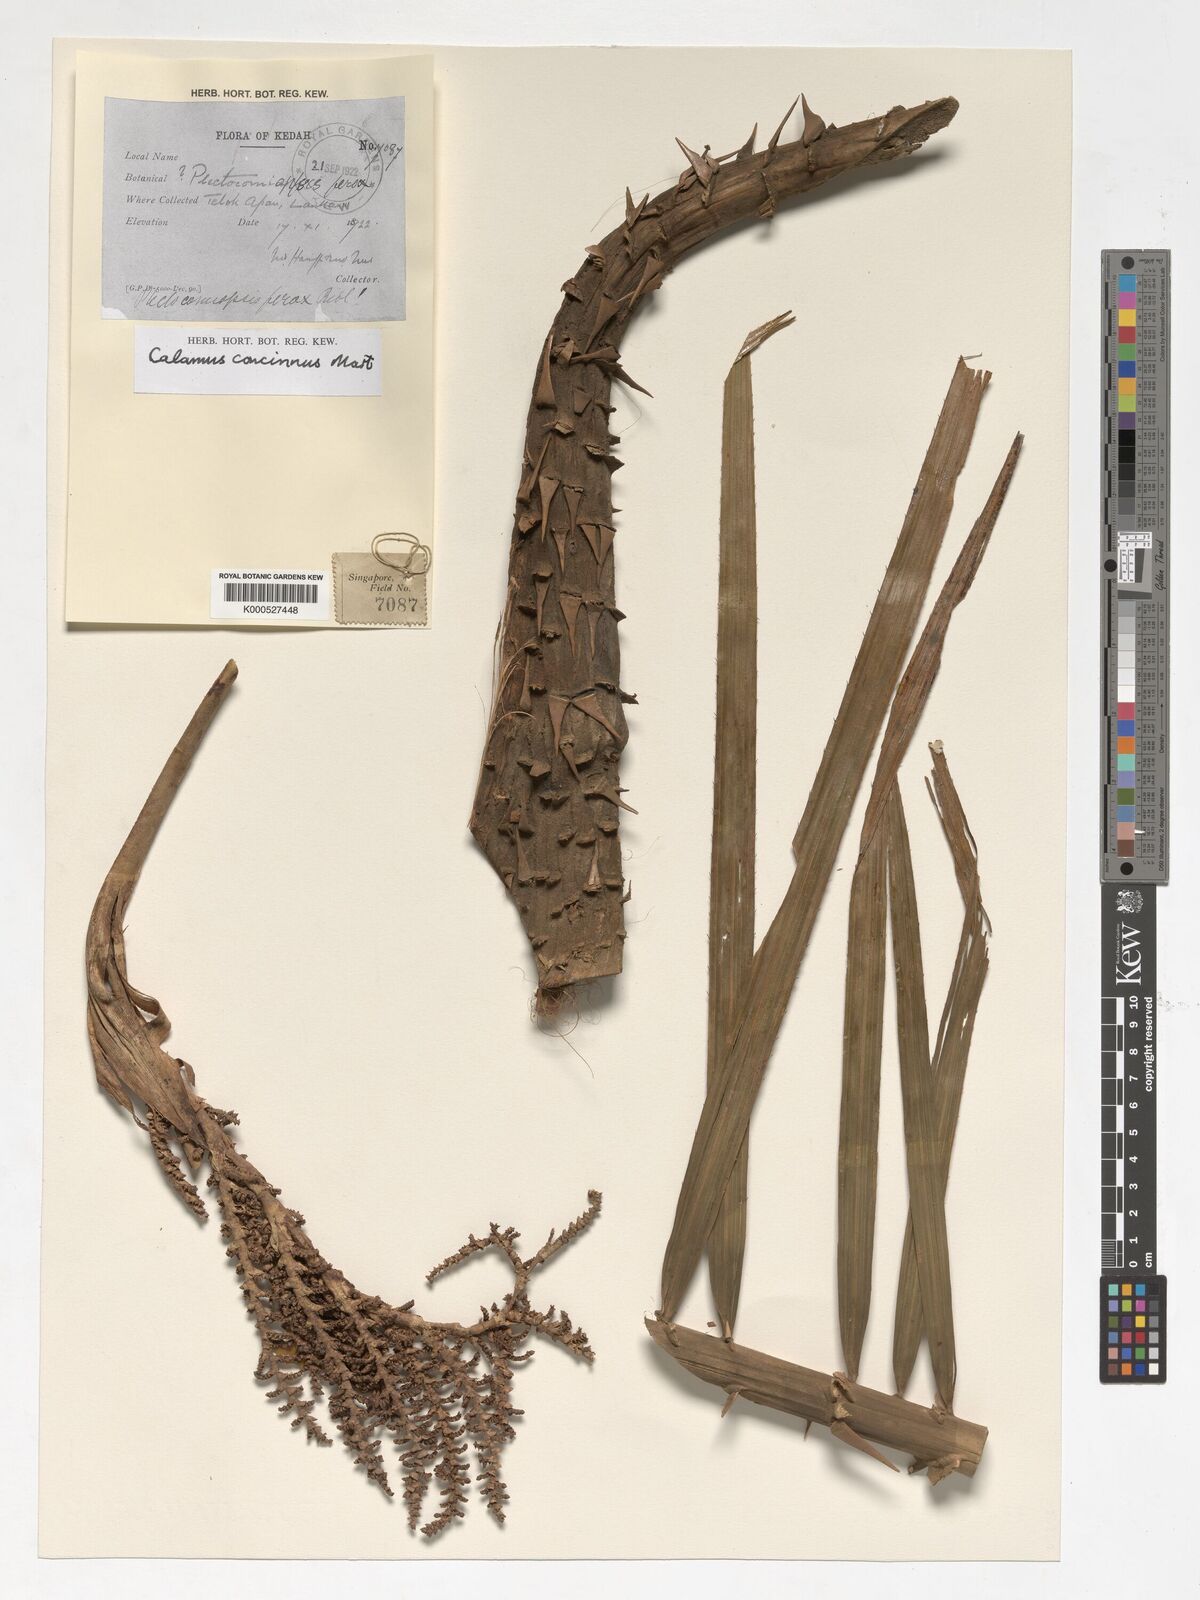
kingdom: Plantae
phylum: Tracheophyta
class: Liliopsida
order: Arecales
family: Arecaceae
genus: Calamus
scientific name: Calamus concinnus
